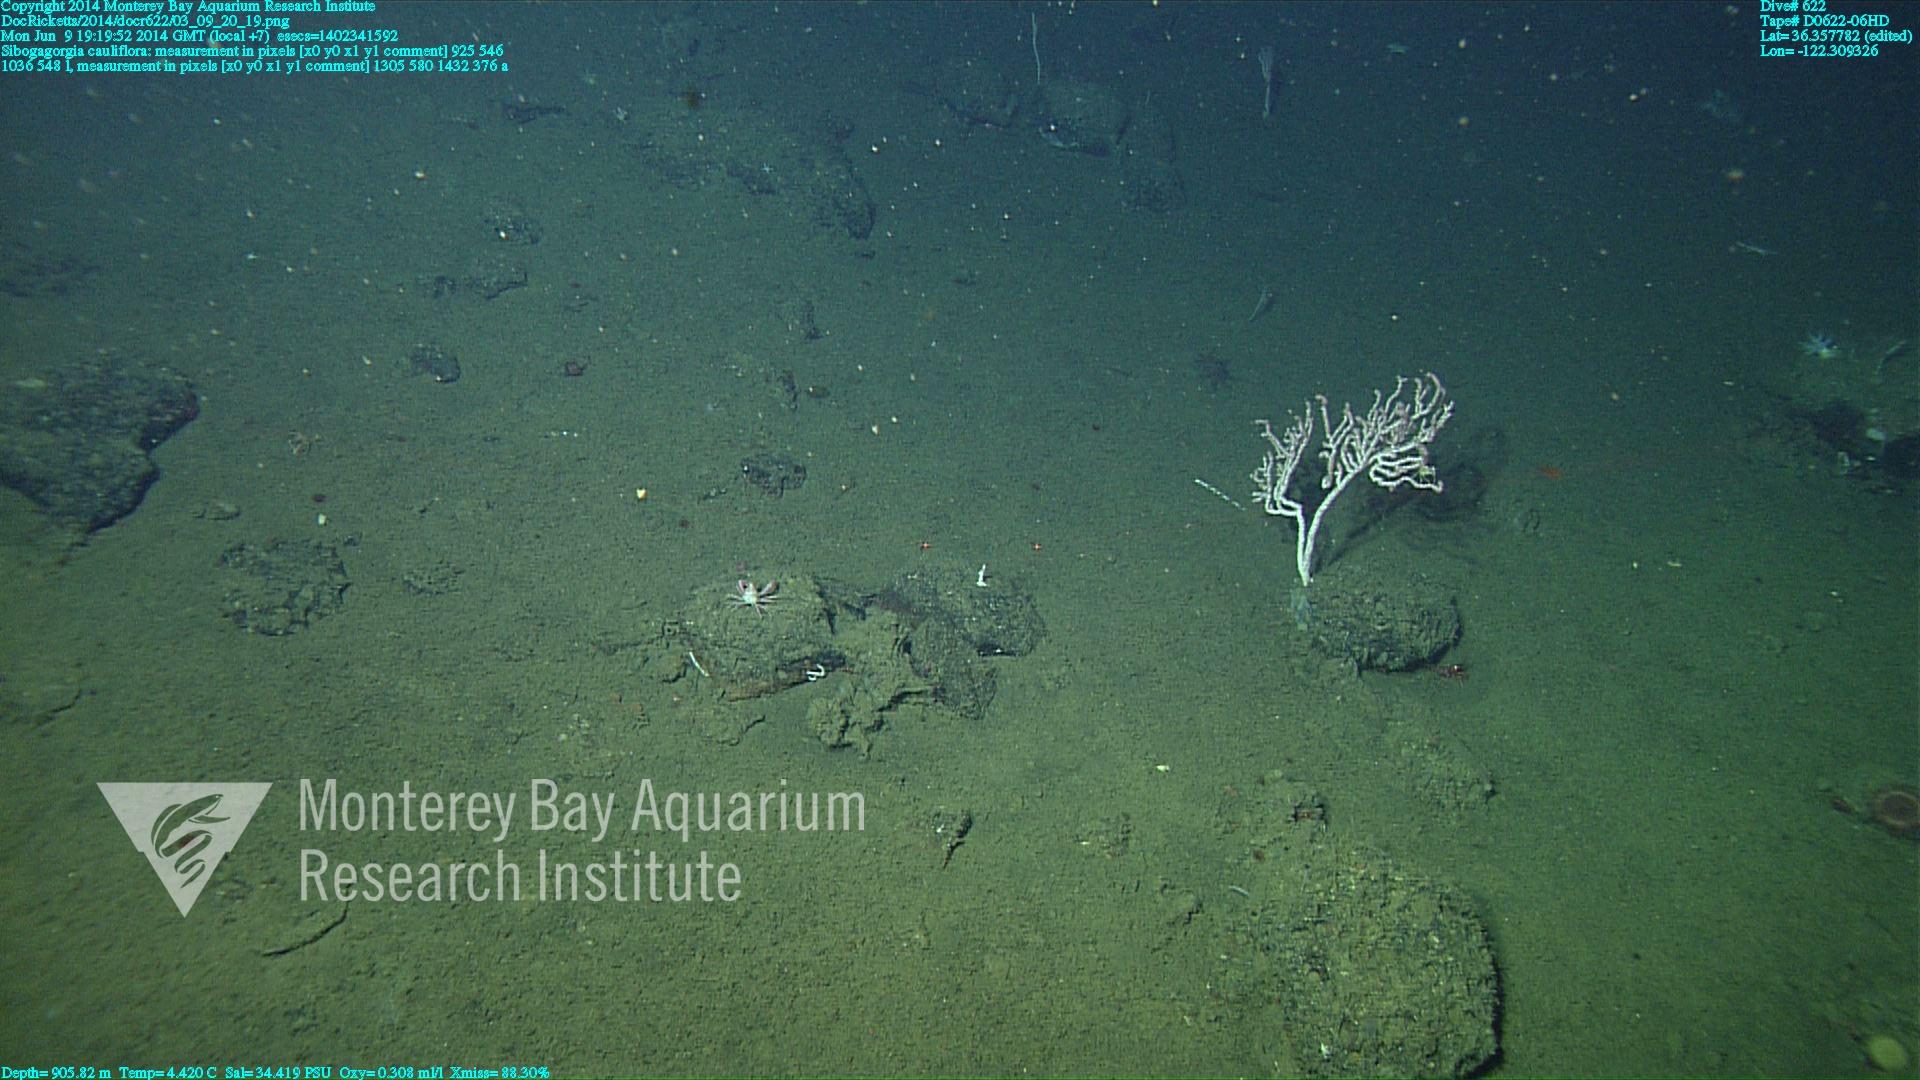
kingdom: Animalia
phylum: Cnidaria
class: Anthozoa
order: Scleralcyonacea
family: Coralliidae
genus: Sibogagorgia
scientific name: Sibogagorgia cauliflora
